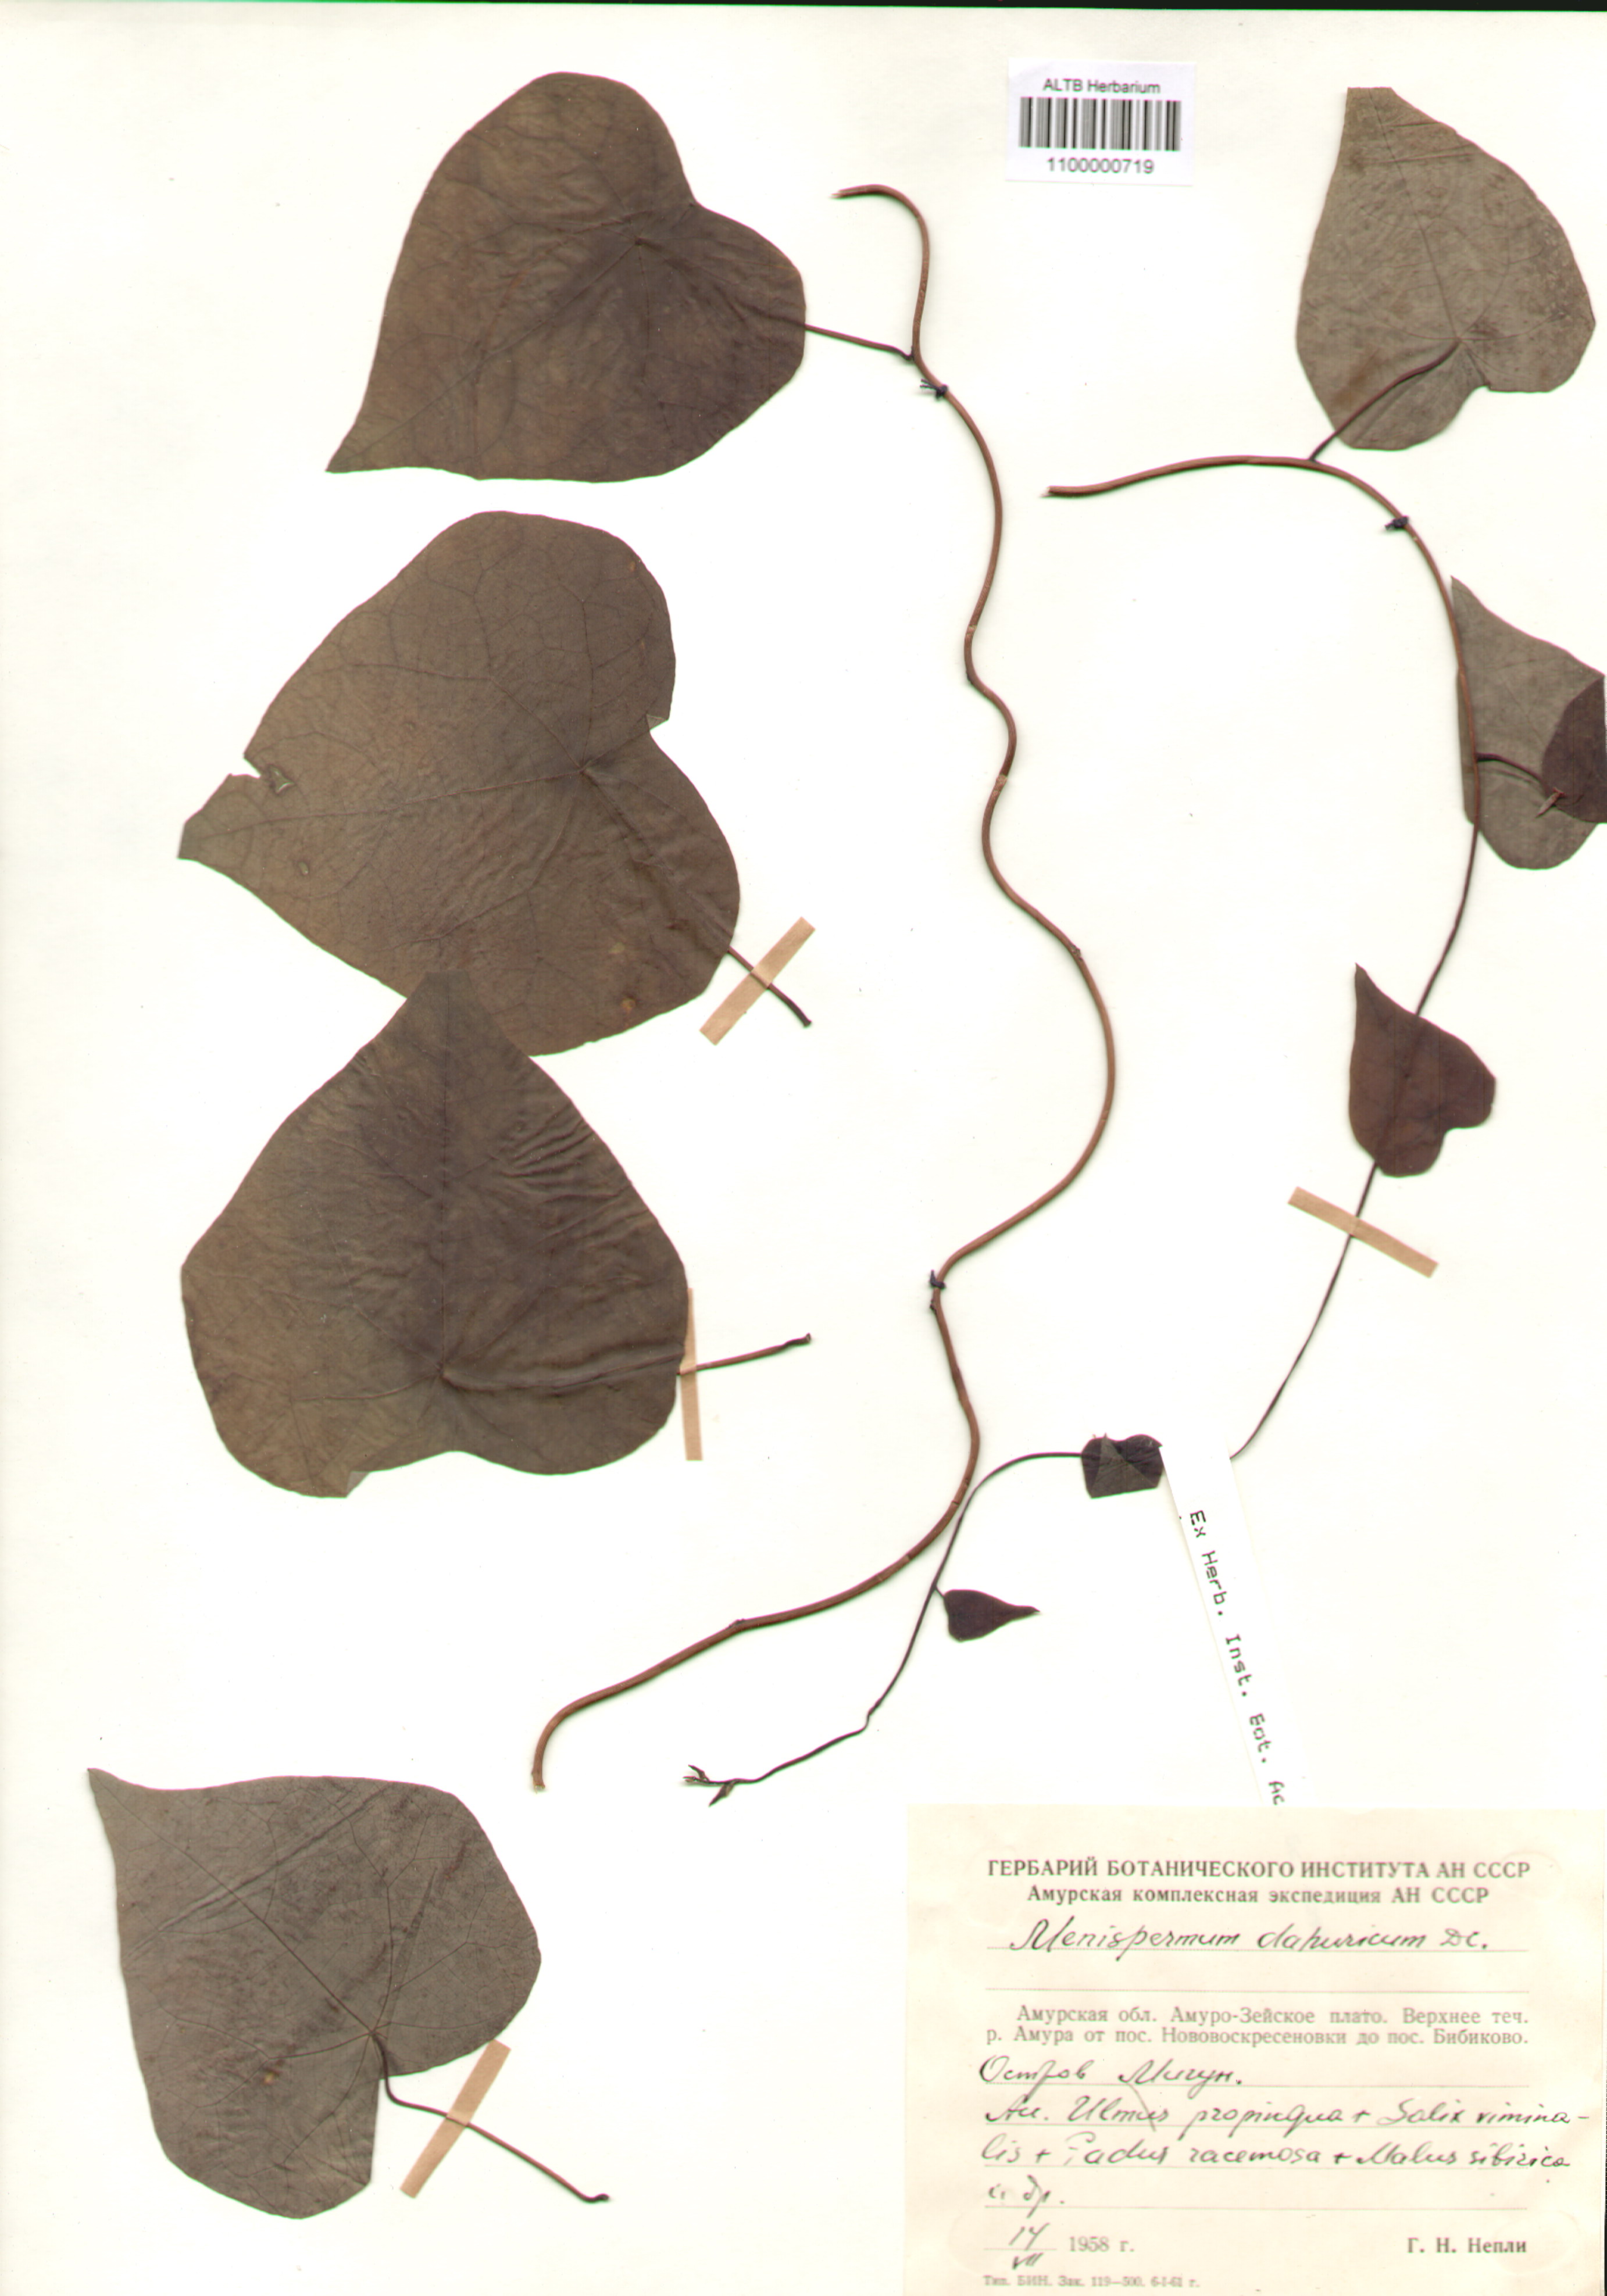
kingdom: Plantae
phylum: Tracheophyta
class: Magnoliopsida
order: Ranunculales
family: Menispermaceae
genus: Menispermum
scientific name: Menispermum
